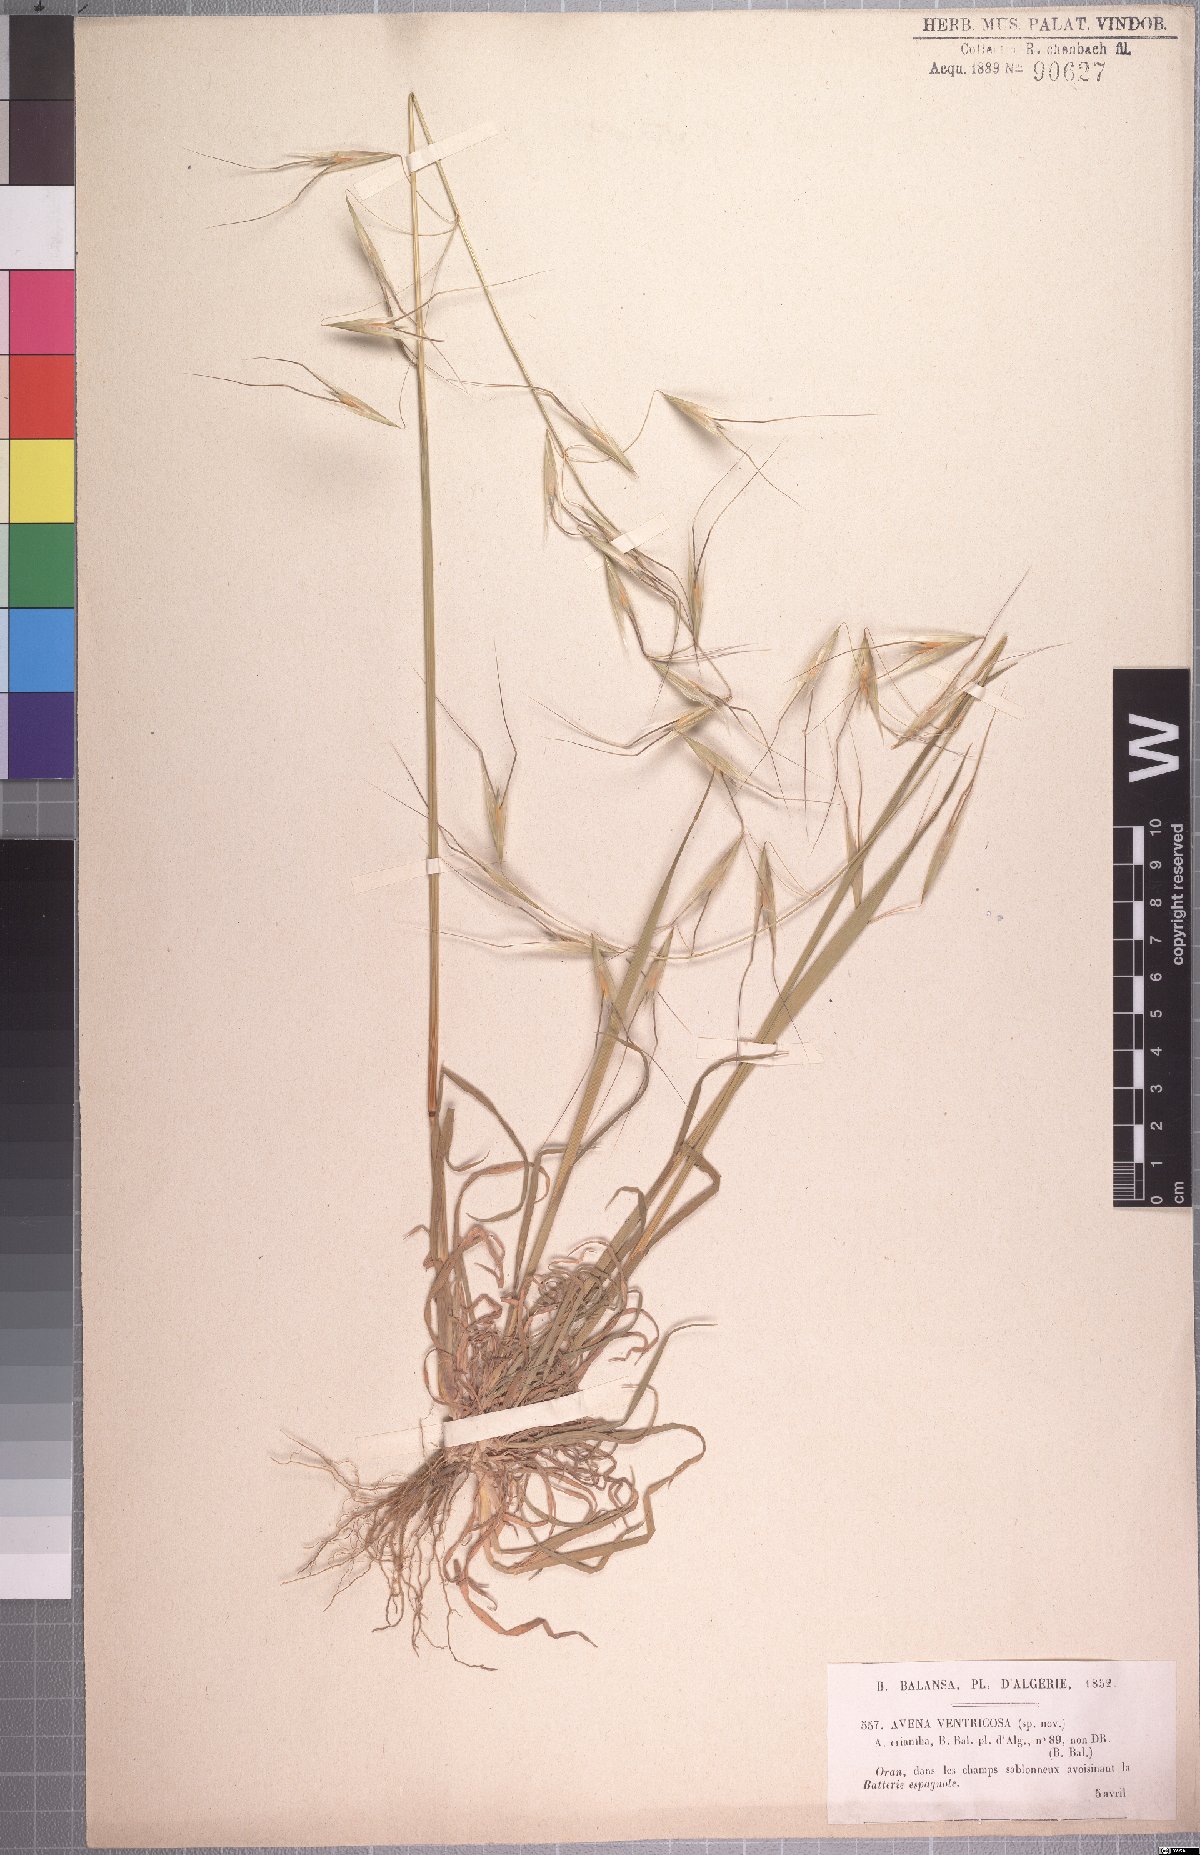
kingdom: Plantae
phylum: Tracheophyta
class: Liliopsida
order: Poales
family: Poaceae
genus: Avena
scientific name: Avena ventricosa
